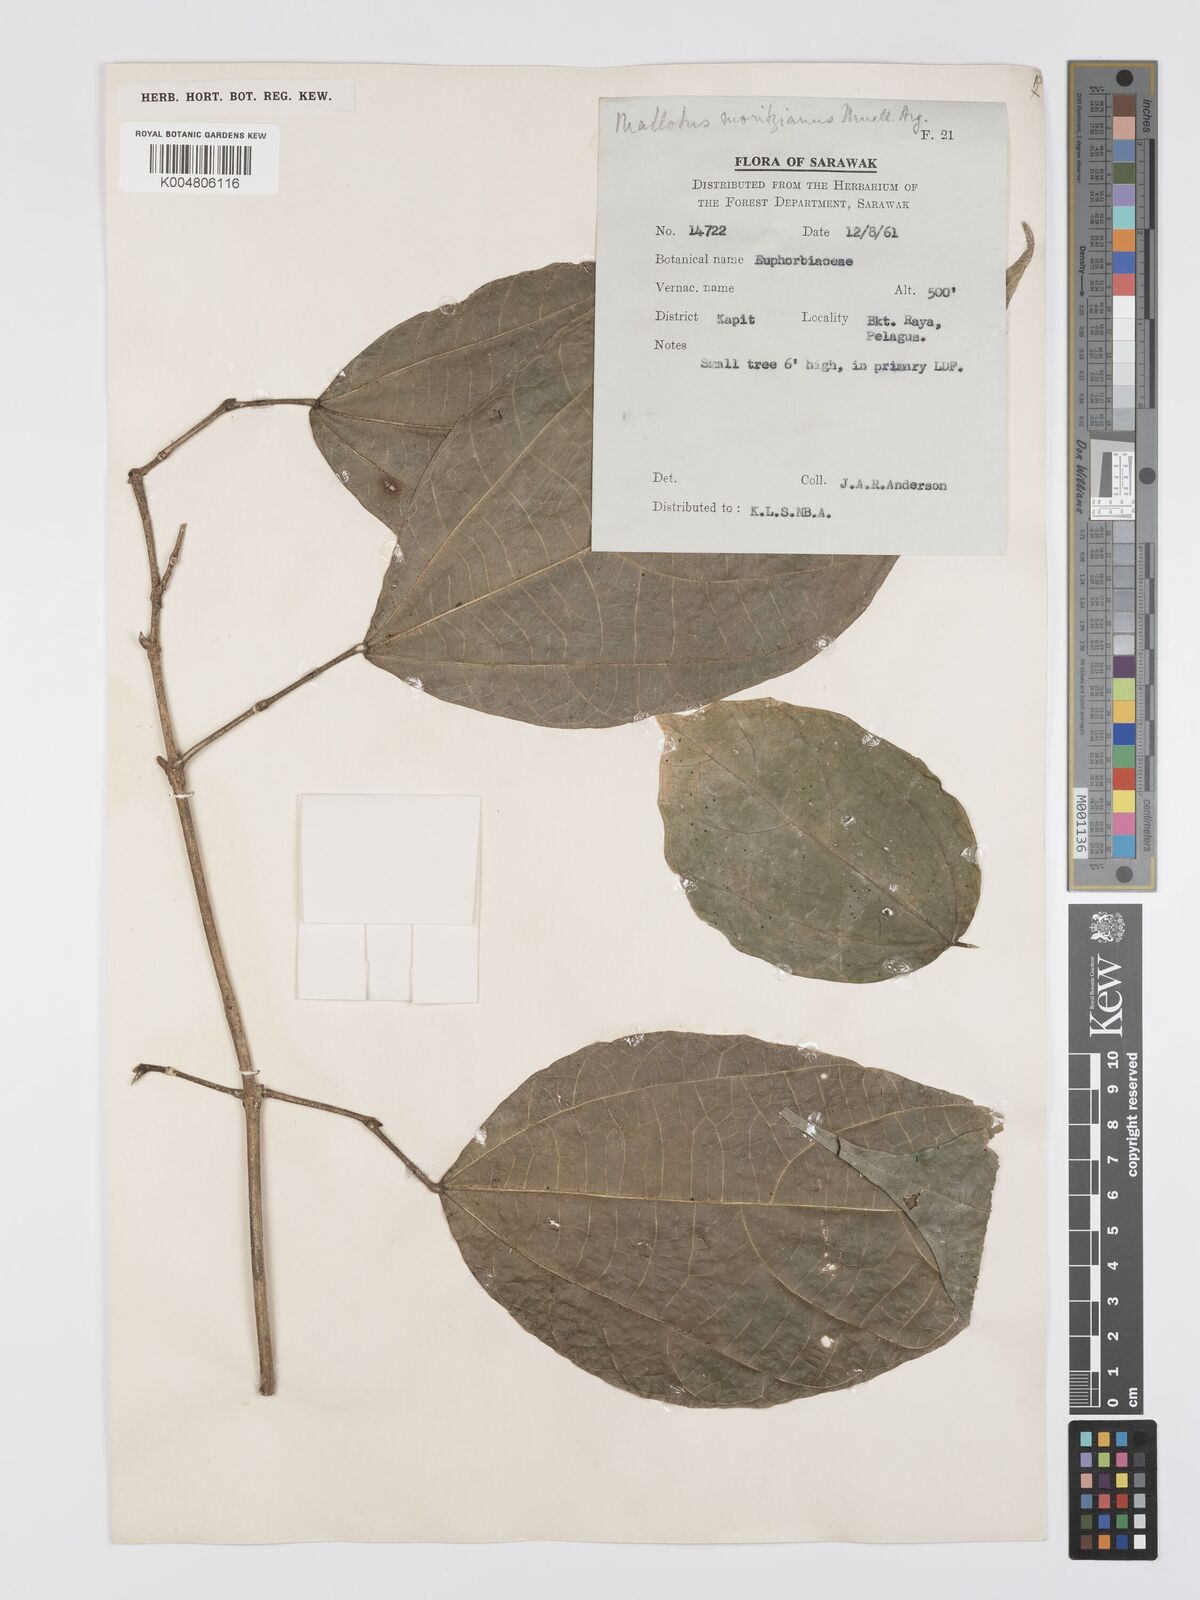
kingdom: Plantae
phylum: Tracheophyta
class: Magnoliopsida
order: Malpighiales
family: Euphorbiaceae
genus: Mallotus
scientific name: Mallotus korthalsii
